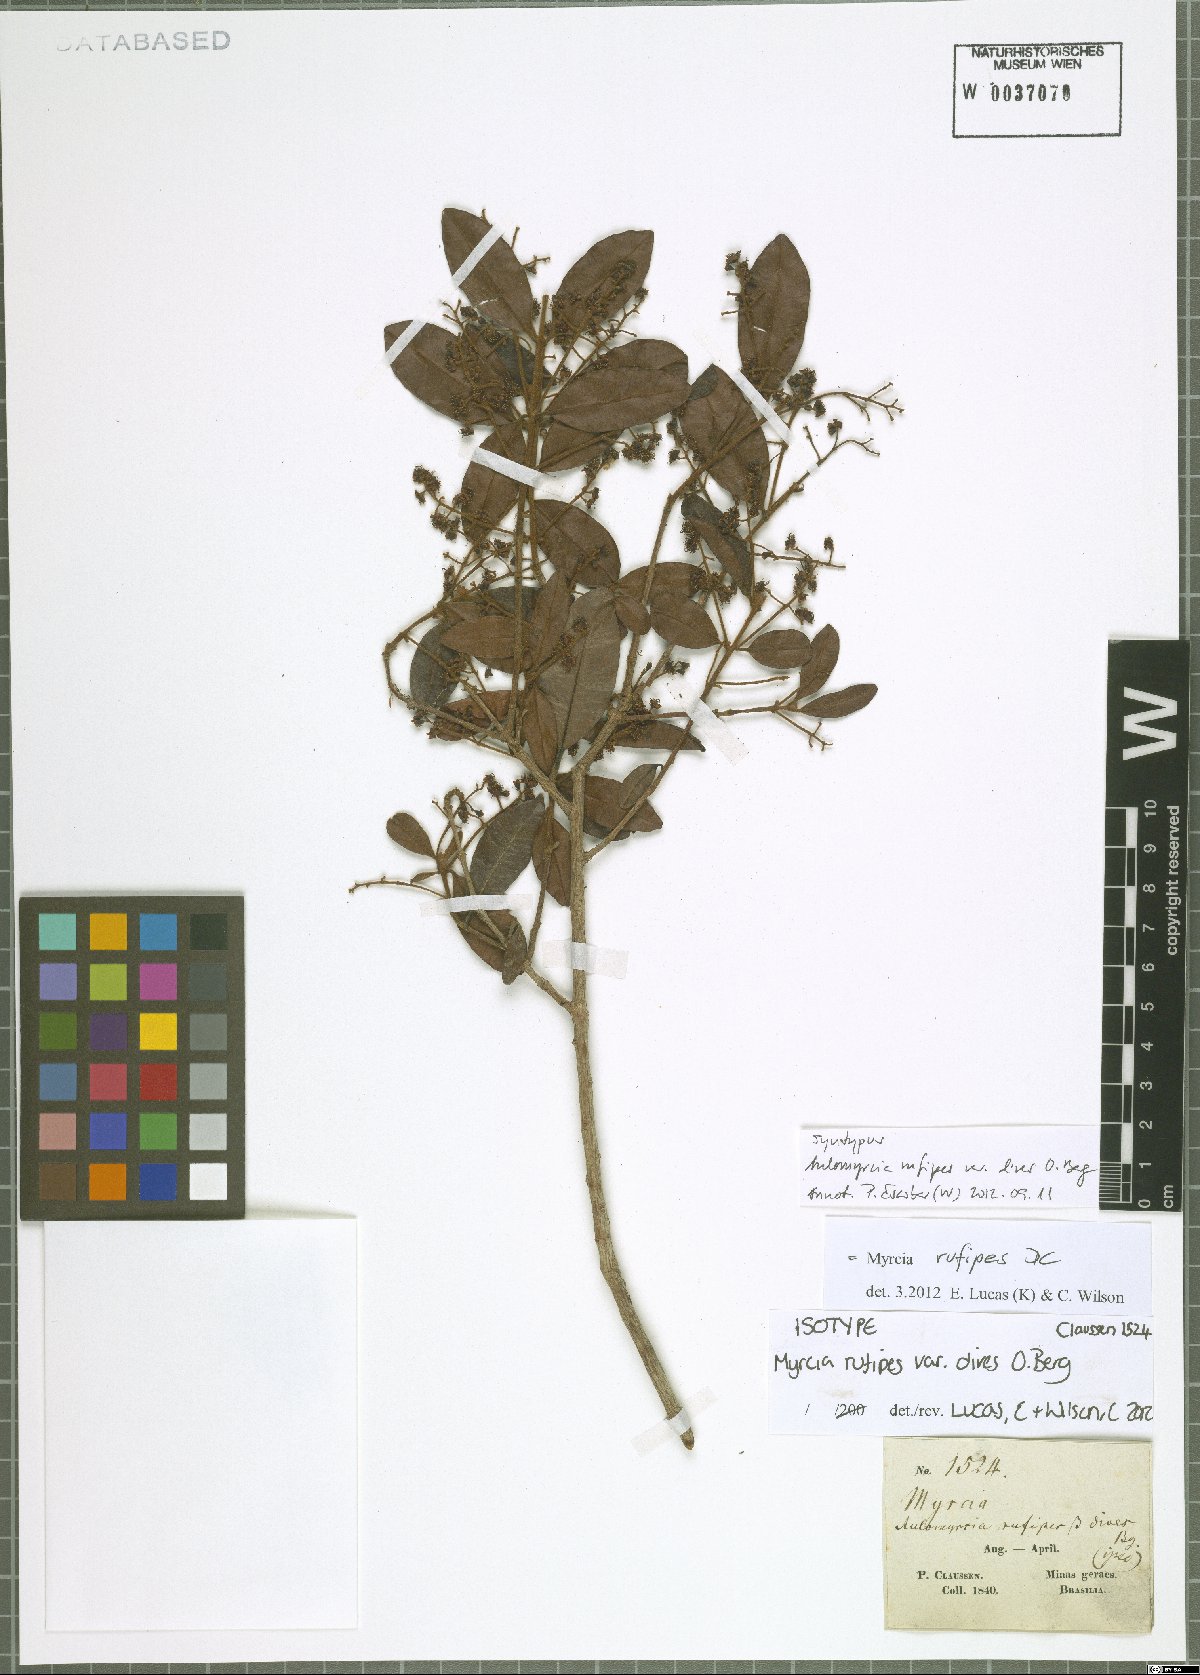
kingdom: Plantae
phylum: Tracheophyta
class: Magnoliopsida
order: Myrtales
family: Myrtaceae
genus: Myrcia
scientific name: Myrcia rufipes
